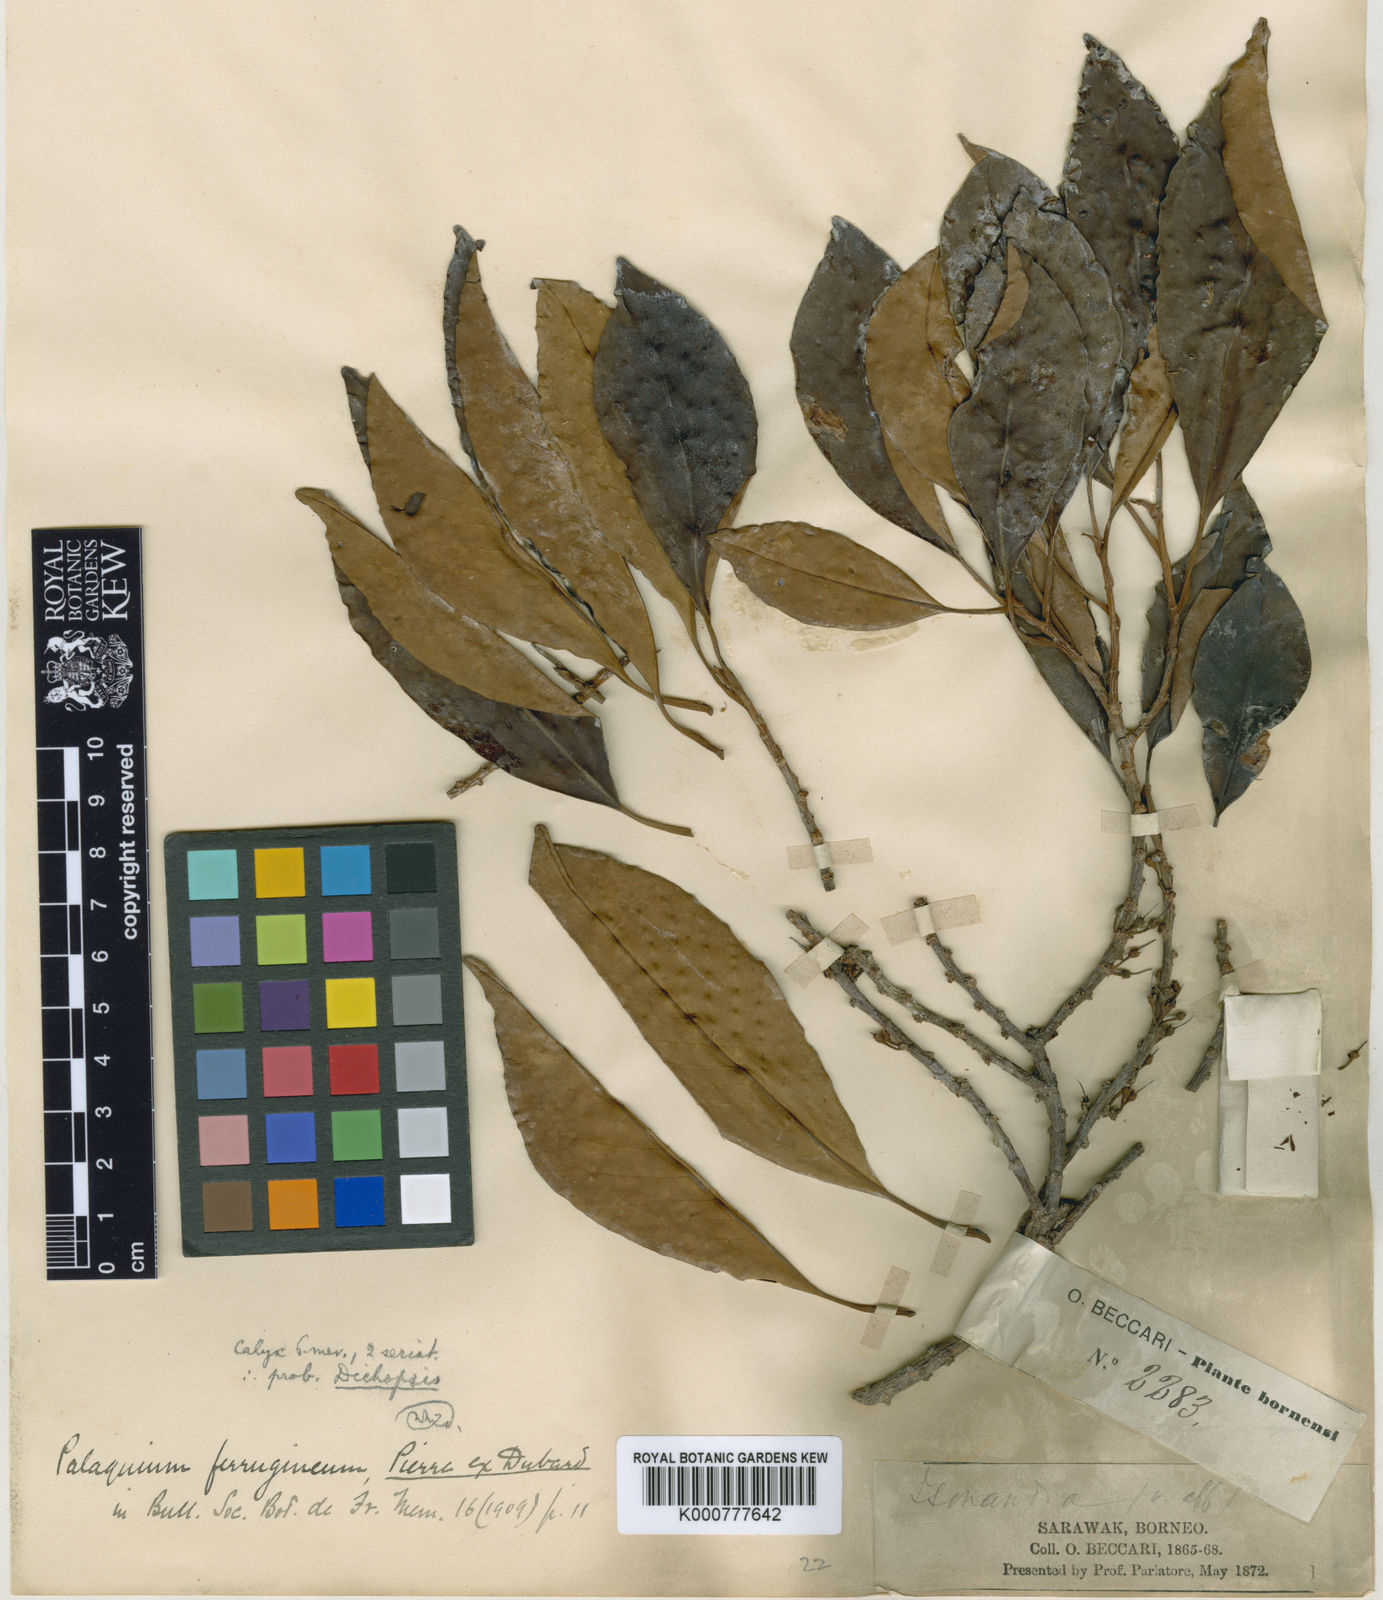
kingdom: Plantae
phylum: Tracheophyta
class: Magnoliopsida
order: Ericales
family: Sapotaceae
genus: Palaquium
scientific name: Palaquium ferrugineum
